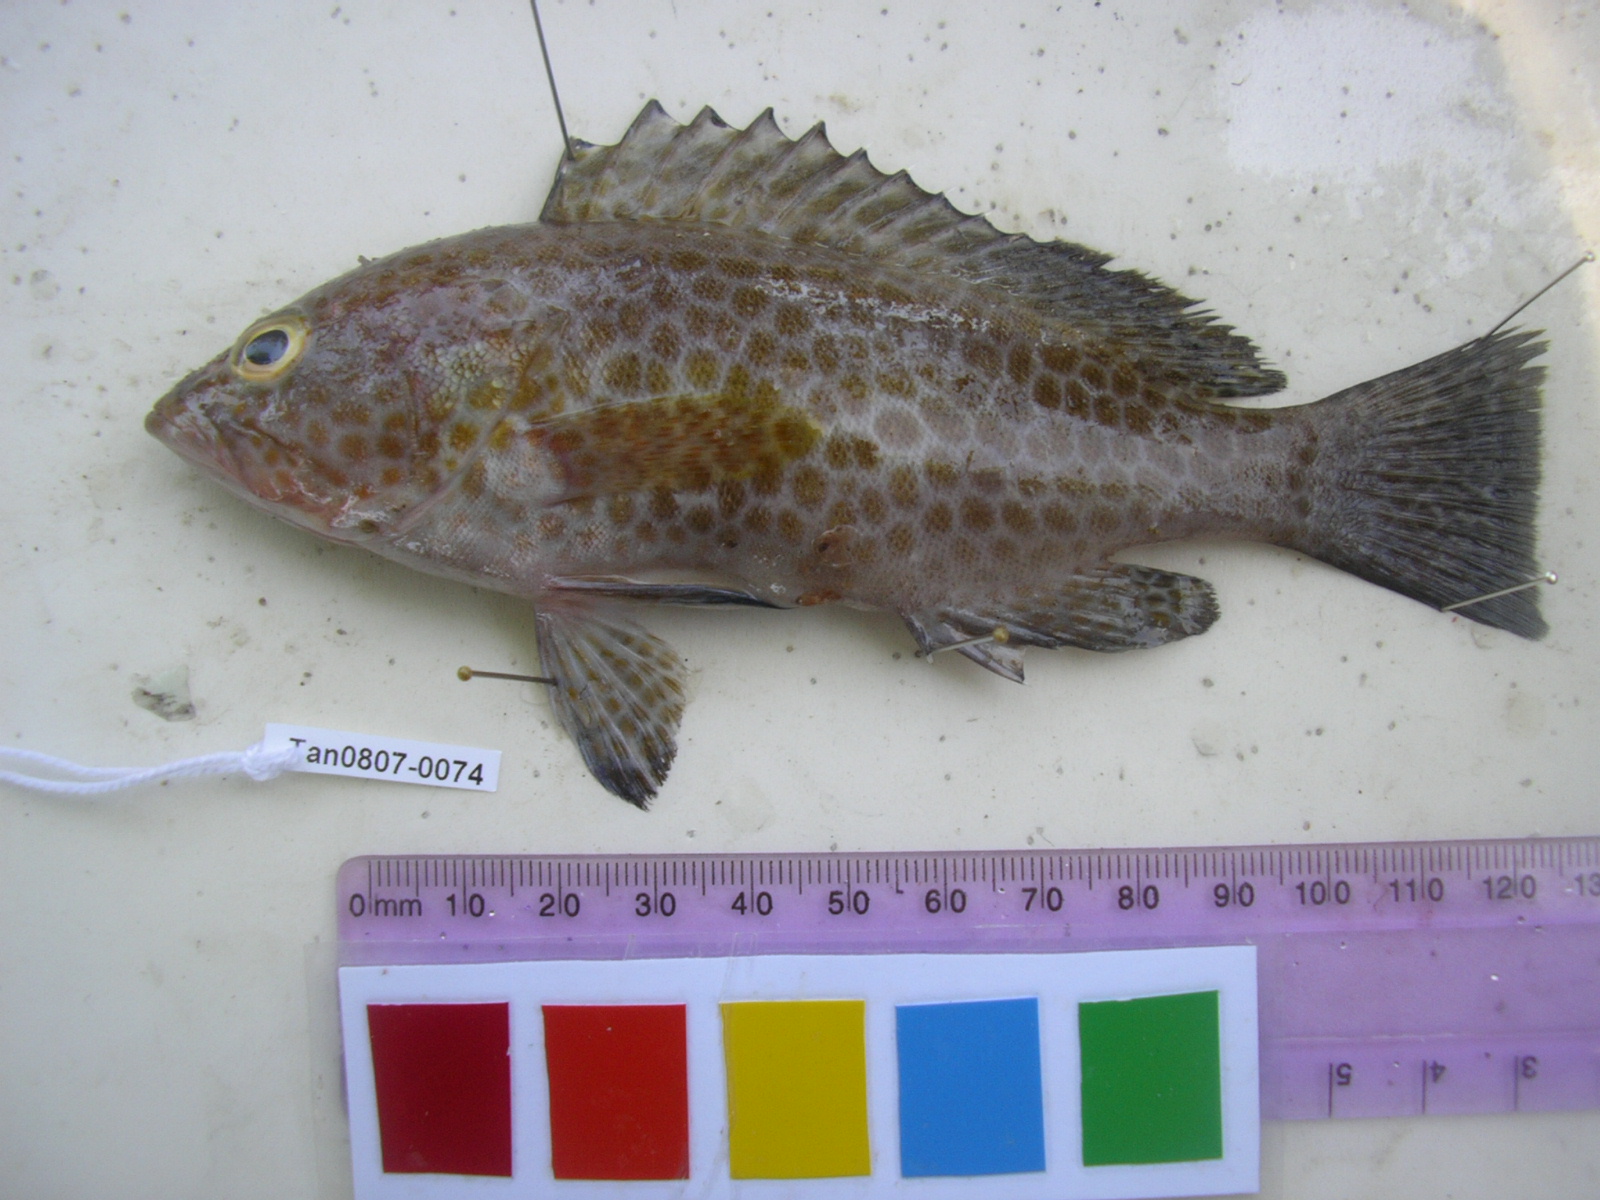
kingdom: Animalia
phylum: Chordata
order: Perciformes
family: Serranidae
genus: Epinephelus
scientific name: Epinephelus areolatus
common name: Areolate grouper
